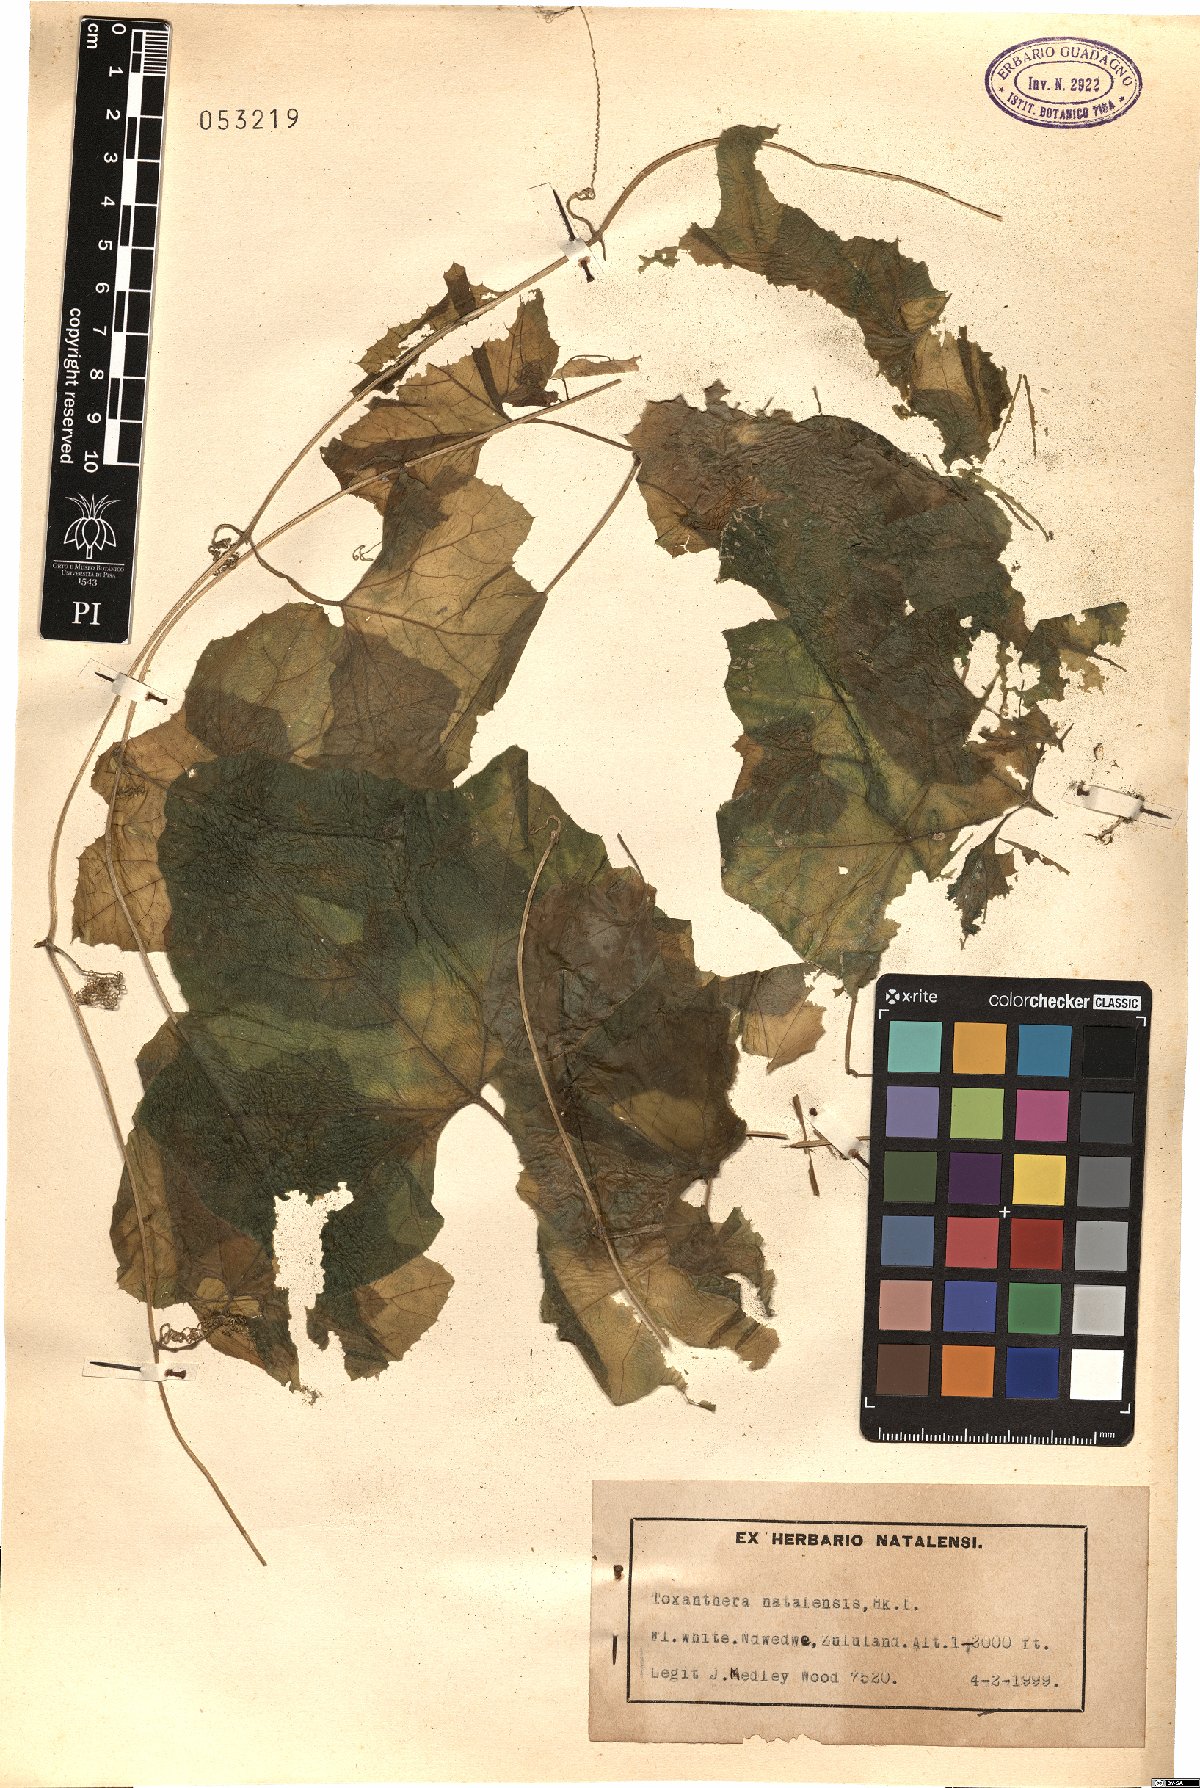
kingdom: Plantae
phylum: Tracheophyta
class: Magnoliopsida
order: Cucurbitales
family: Cucurbitaceae
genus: Kedrostis
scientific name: Kedrostis hirtella
